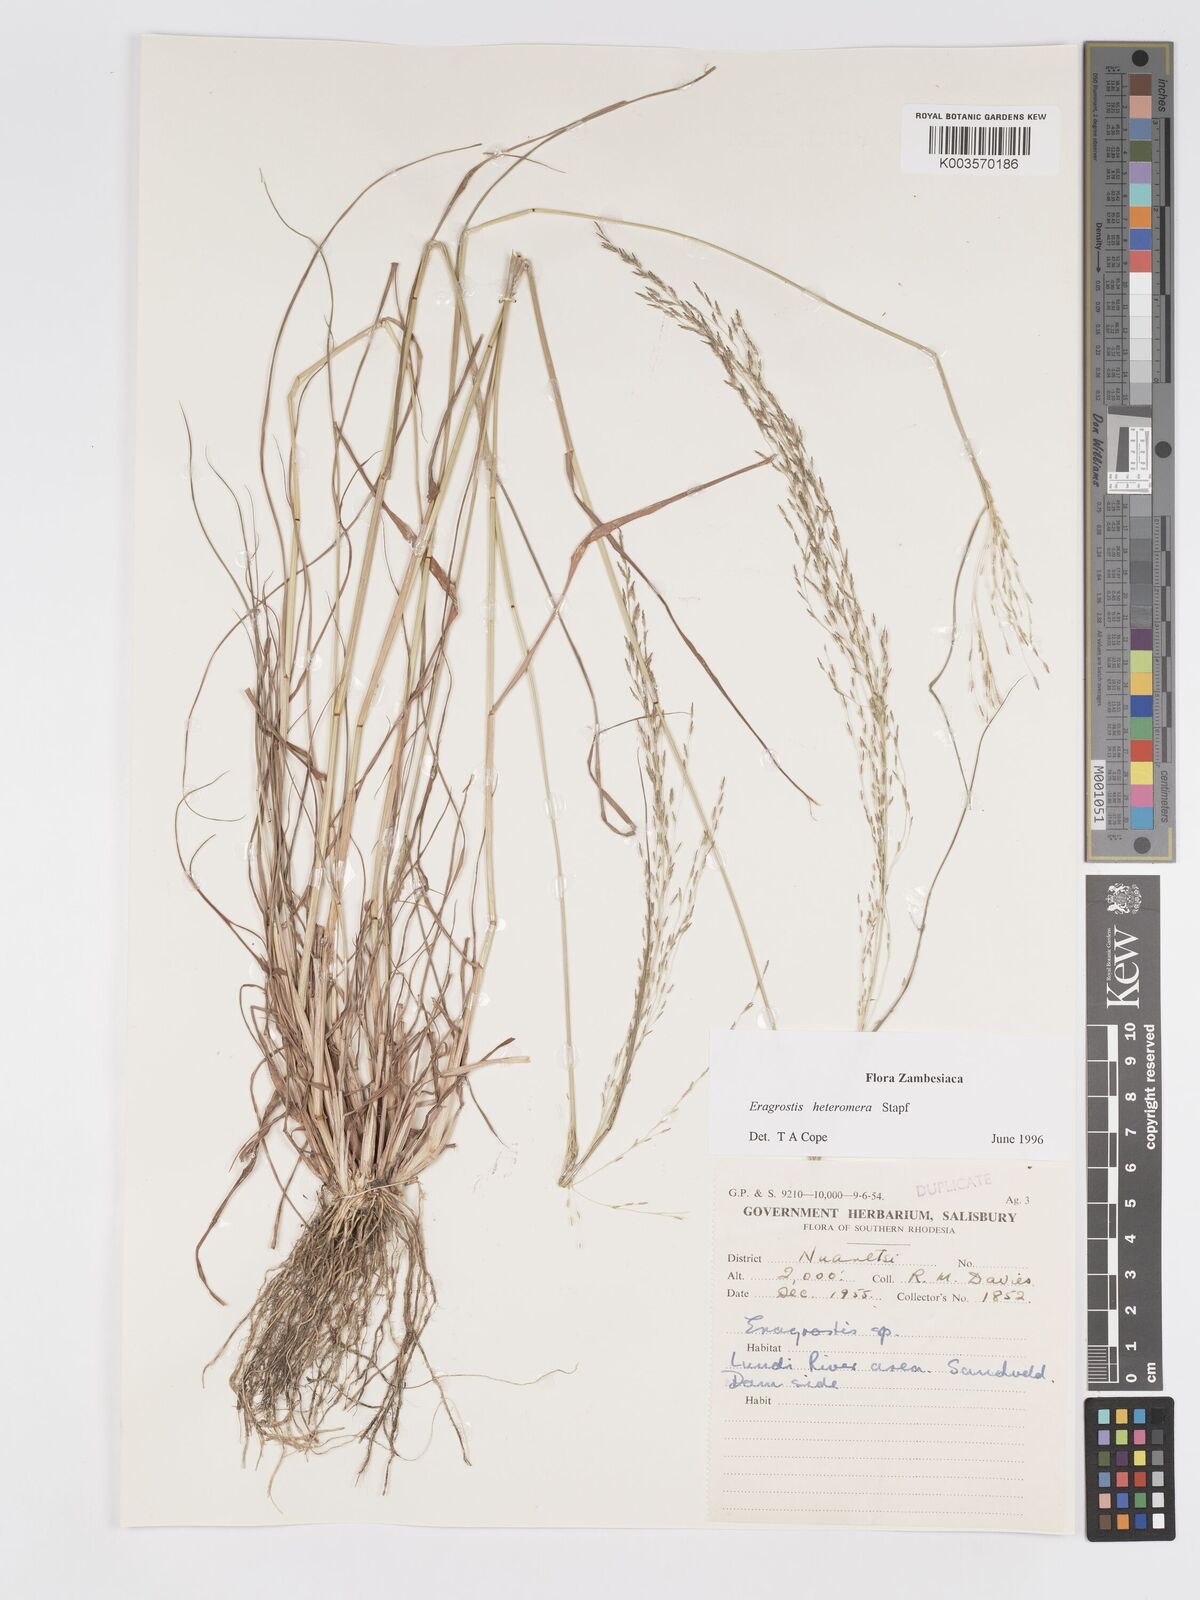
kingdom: Plantae
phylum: Tracheophyta
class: Liliopsida
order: Poales
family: Poaceae
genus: Eragrostis
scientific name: Eragrostis heteromera
